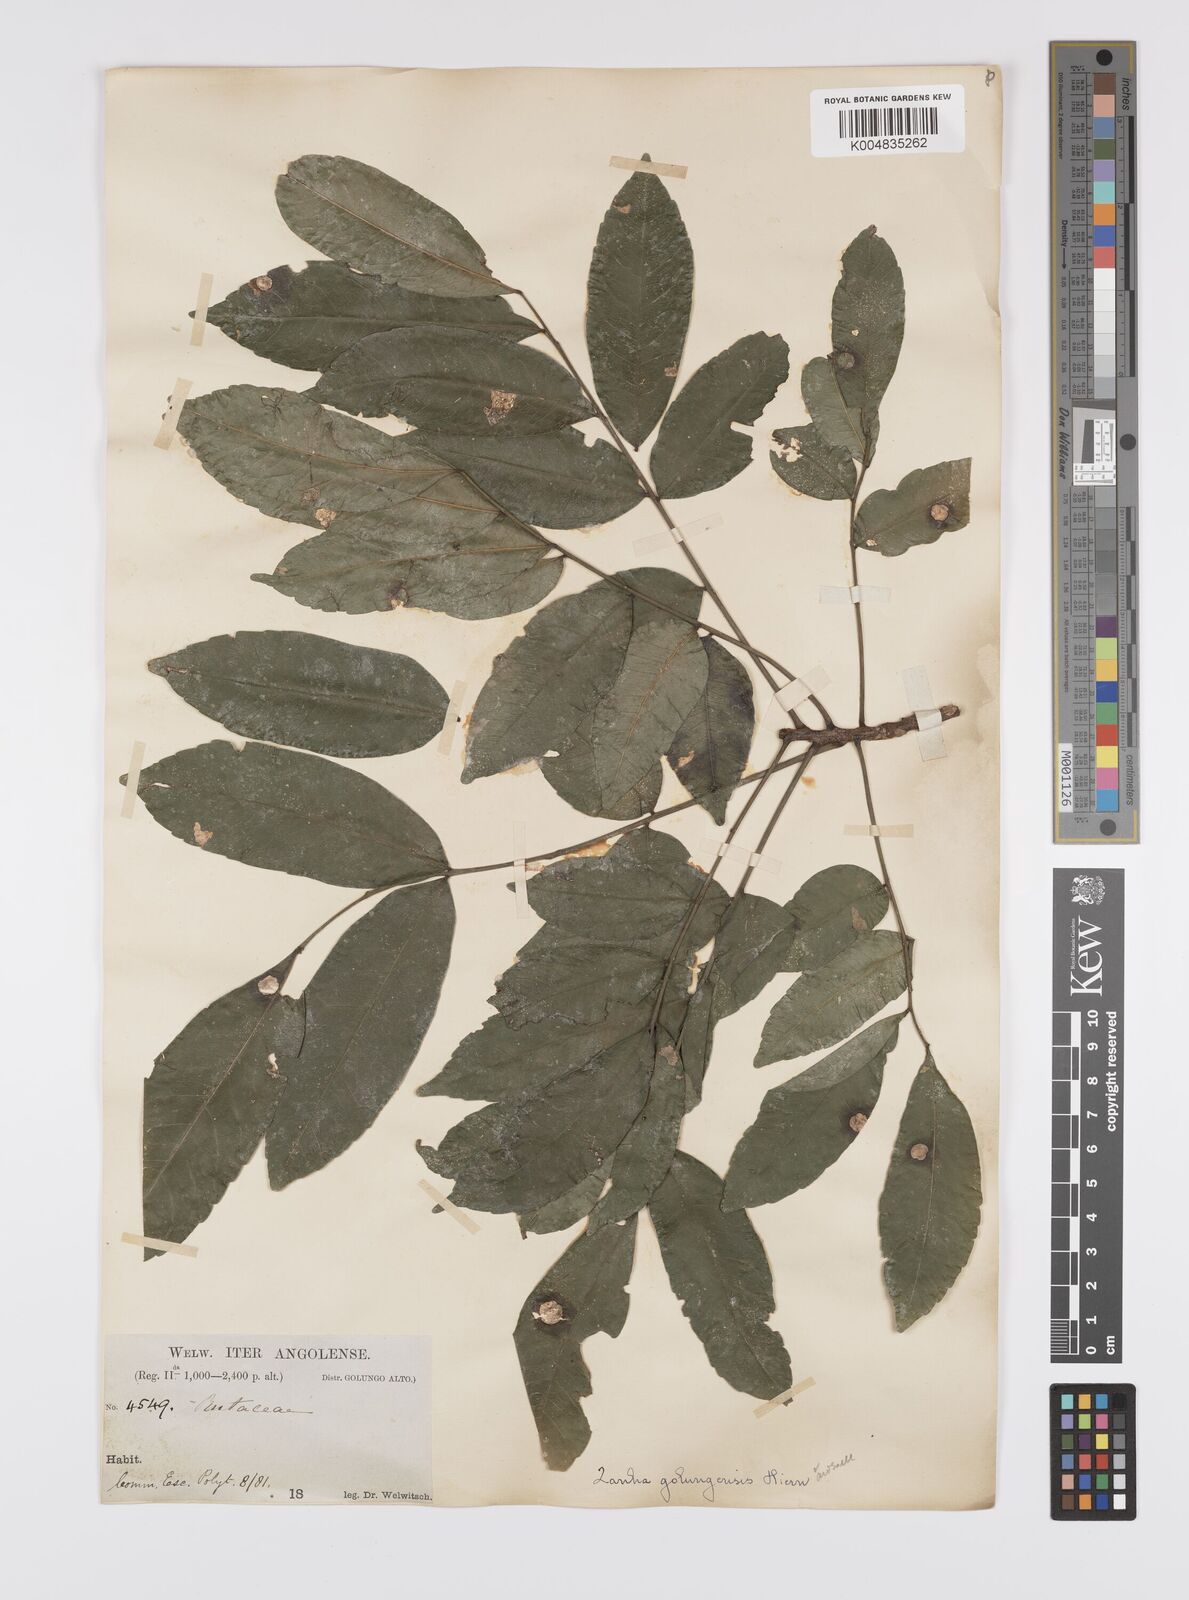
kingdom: Plantae
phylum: Tracheophyta
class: Magnoliopsida
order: Sapindales
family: Sapindaceae
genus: Zanha
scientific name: Zanha golungensis
